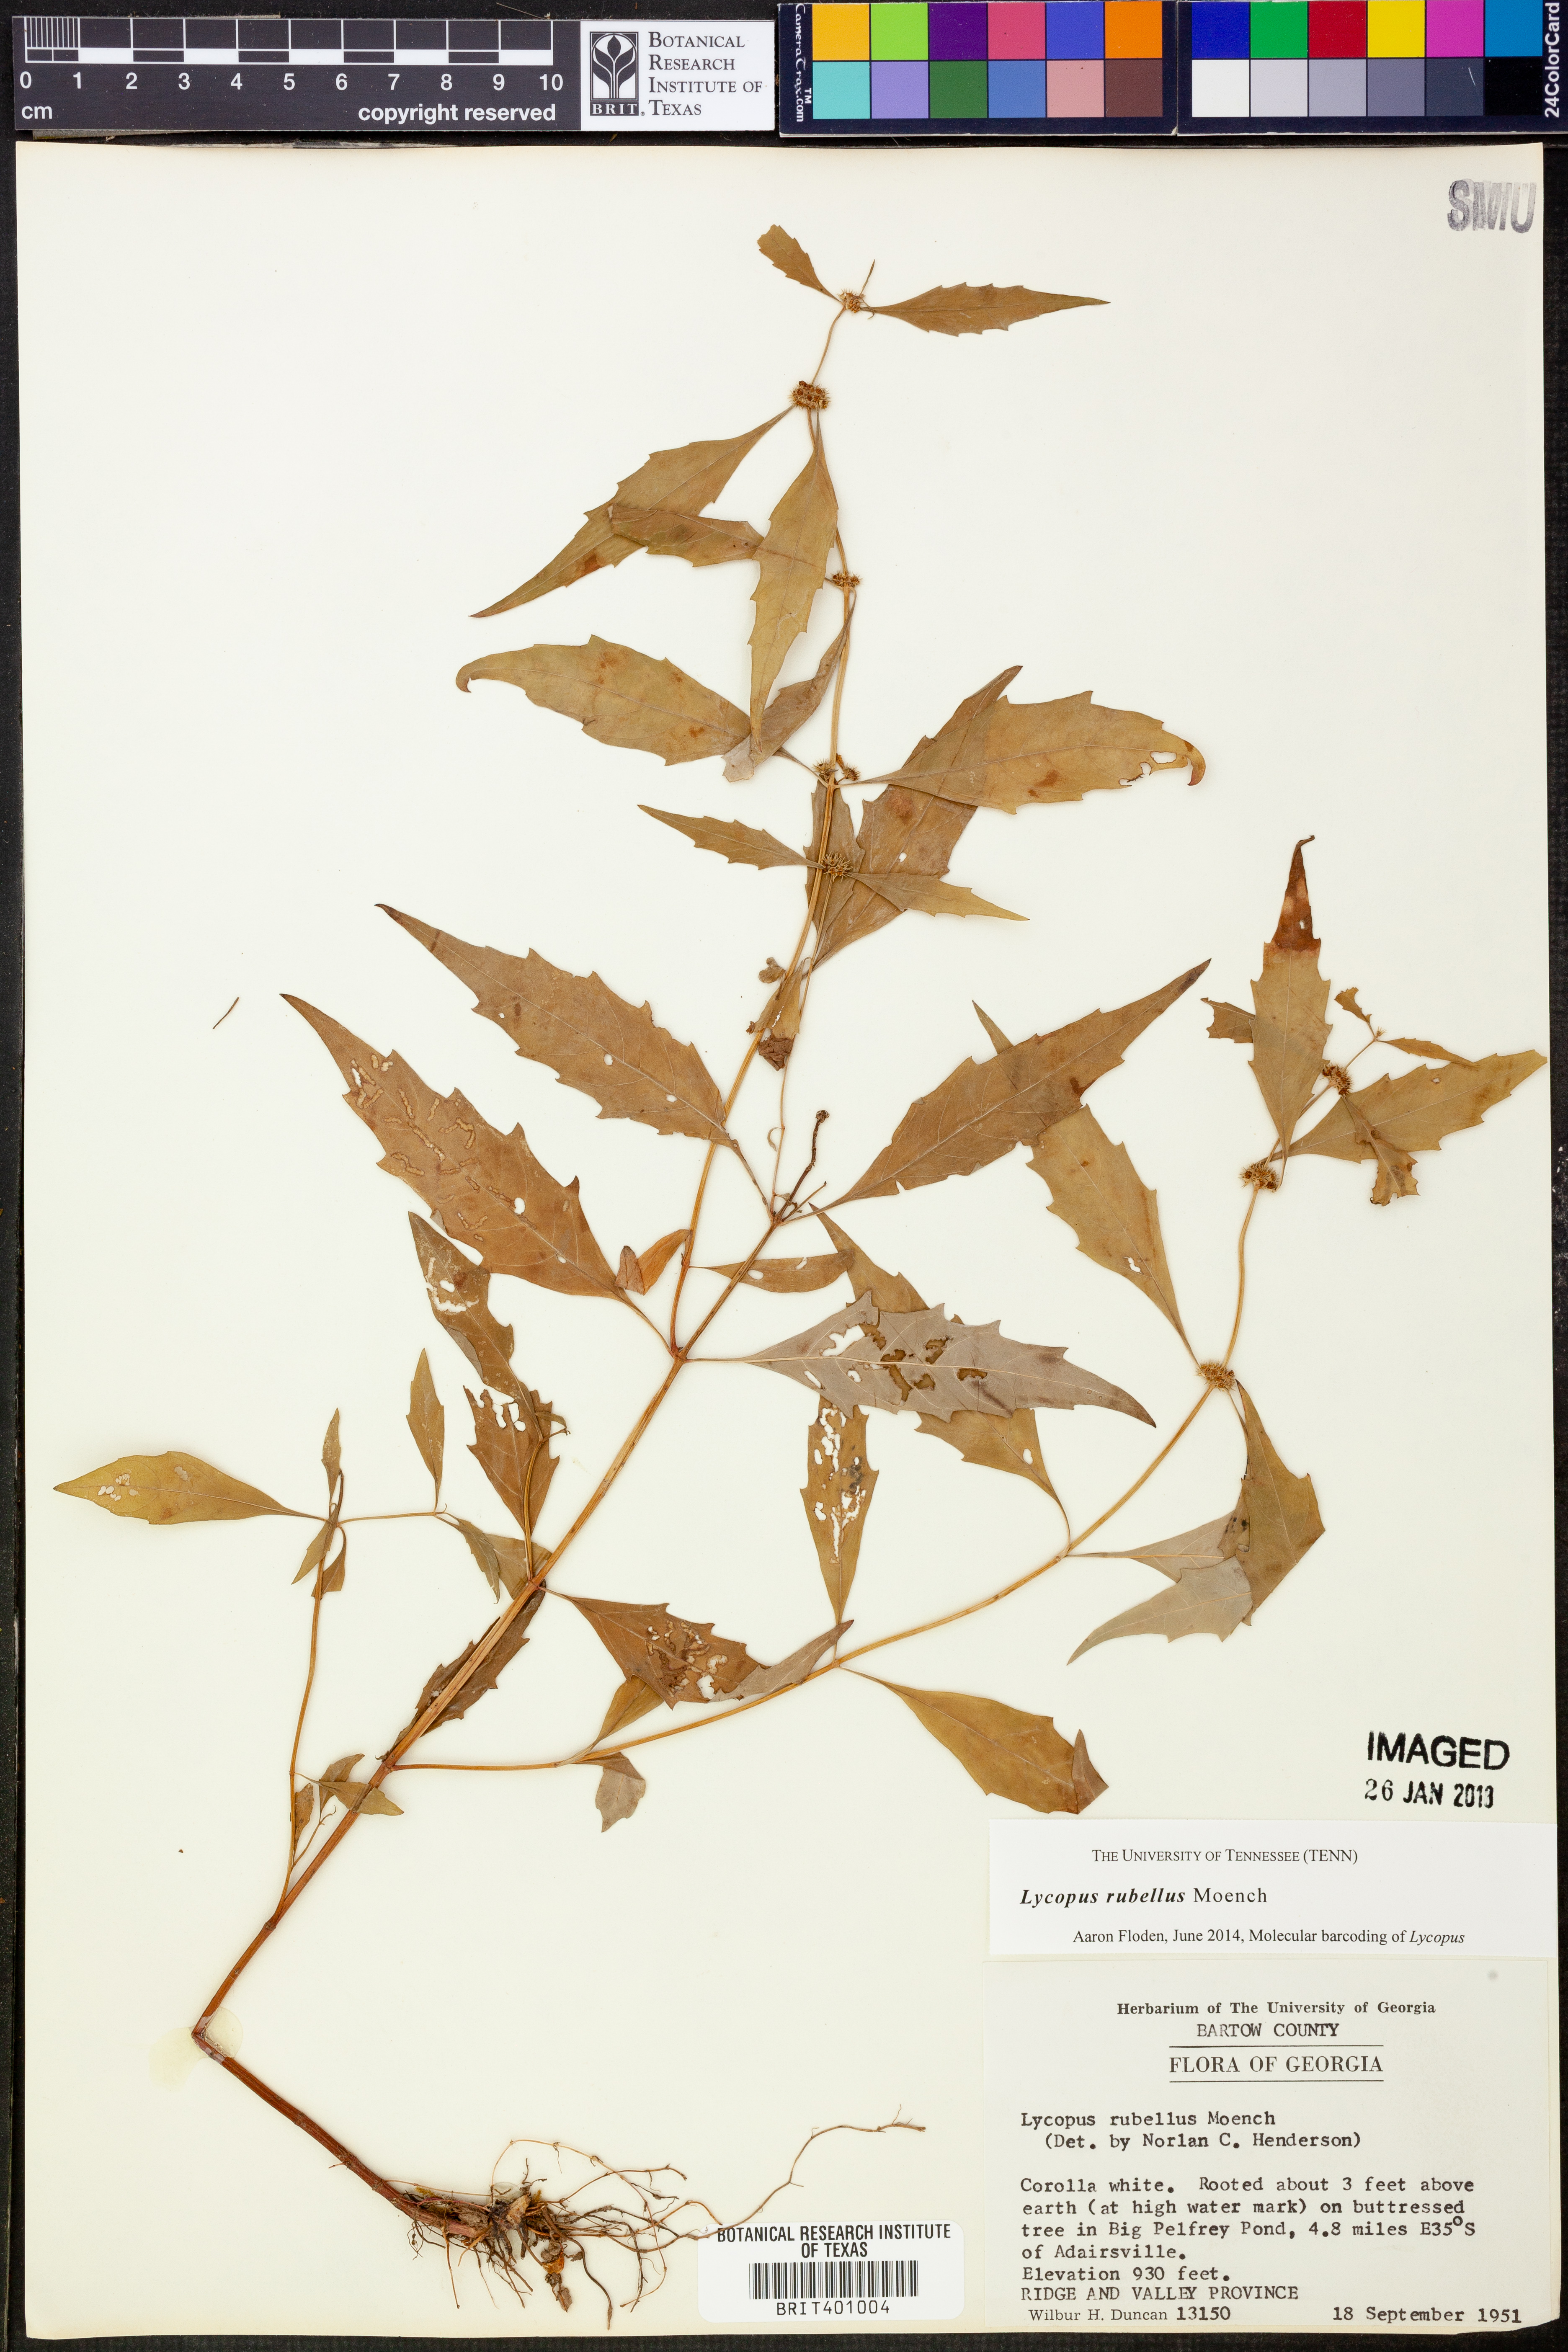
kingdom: Plantae
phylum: Tracheophyta
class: Magnoliopsida
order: Lamiales
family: Lamiaceae
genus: Lycopus
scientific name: Lycopus rubellus
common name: Stalked bugleweed
